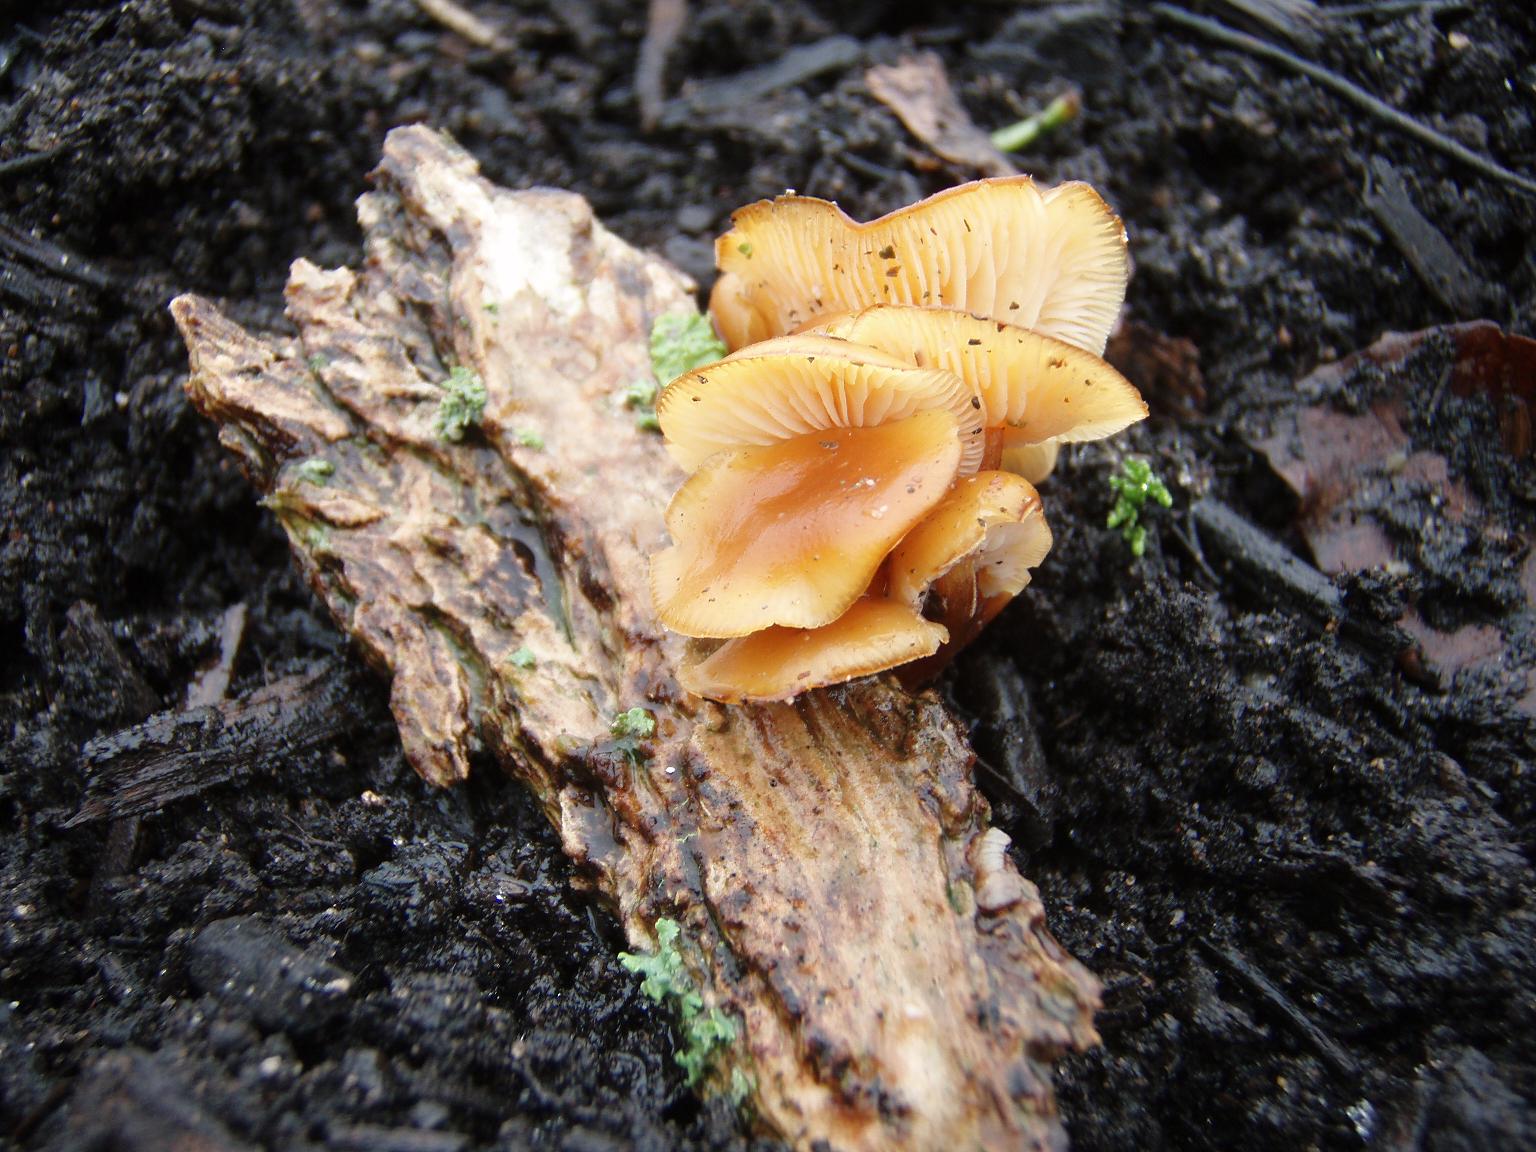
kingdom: Fungi
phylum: Basidiomycota
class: Agaricomycetes
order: Agaricales
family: Physalacriaceae
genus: Flammulina
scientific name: Flammulina velutipes
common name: gul fløjlsfod
